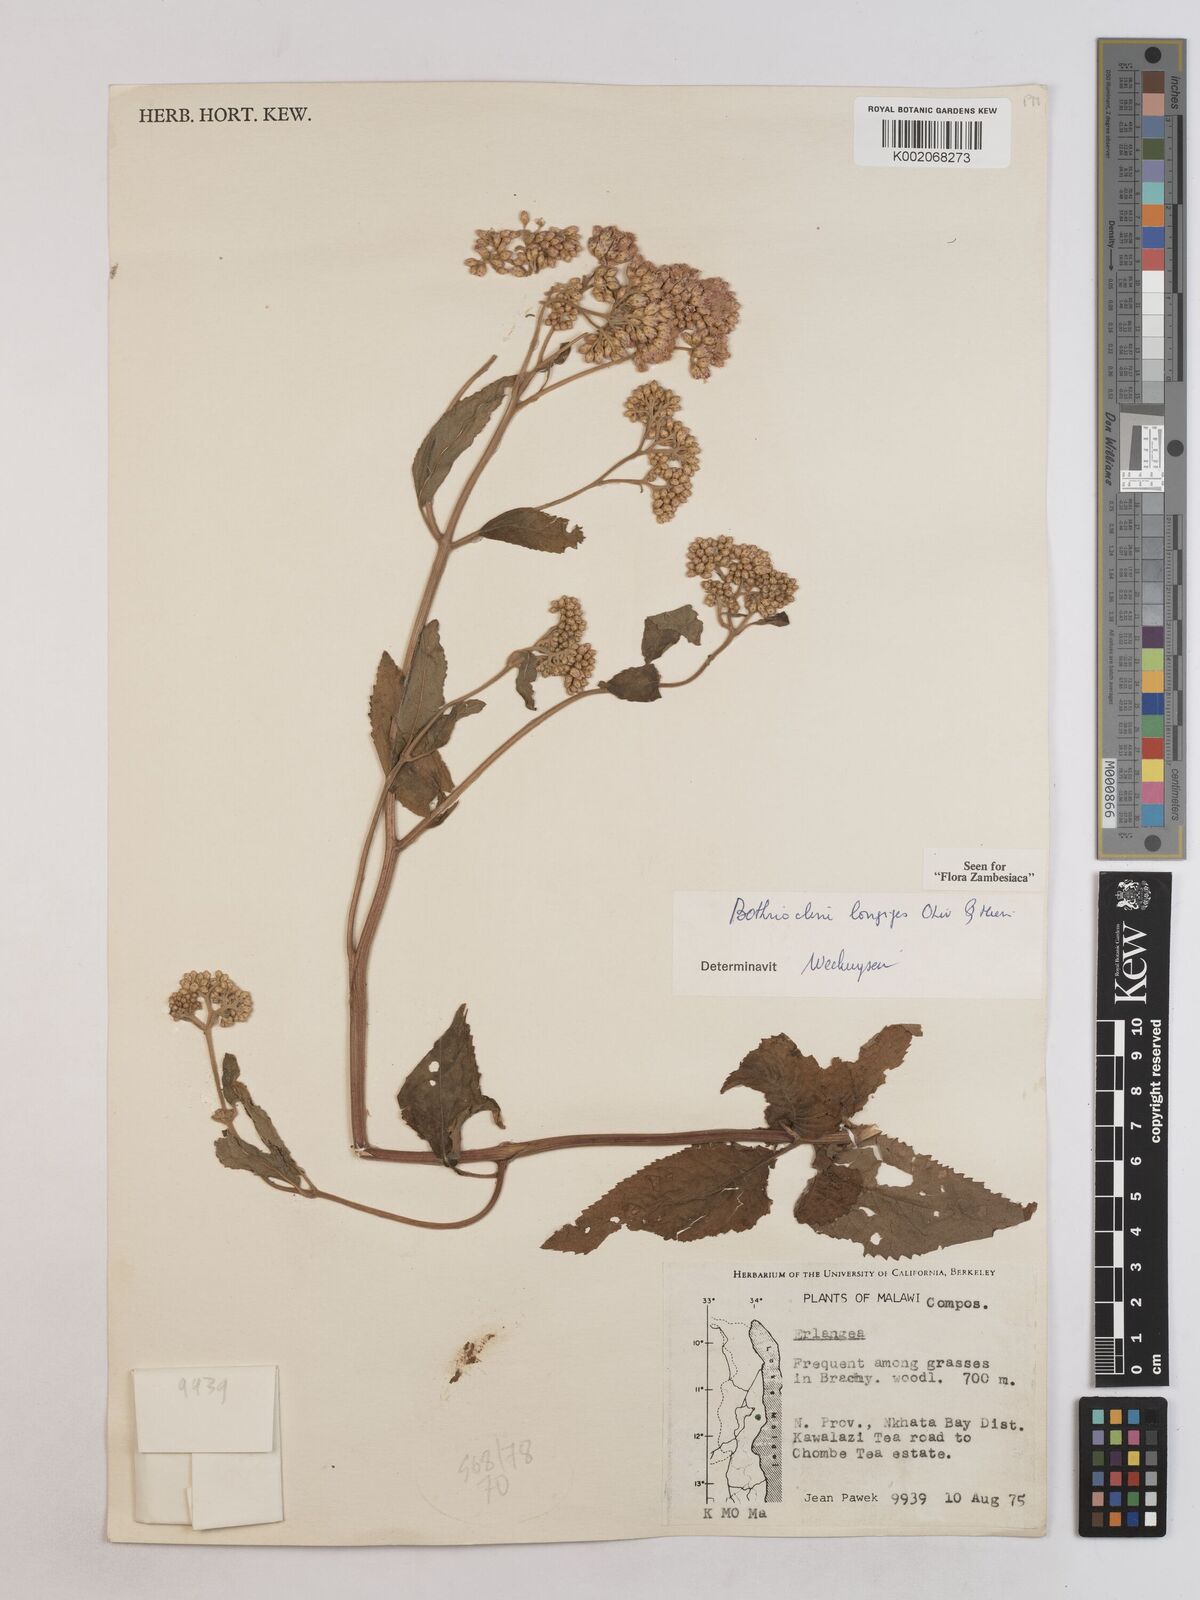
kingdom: Plantae
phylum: Tracheophyta
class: Magnoliopsida
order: Asterales
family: Asteraceae
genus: Bothriocline
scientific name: Bothriocline longipes
